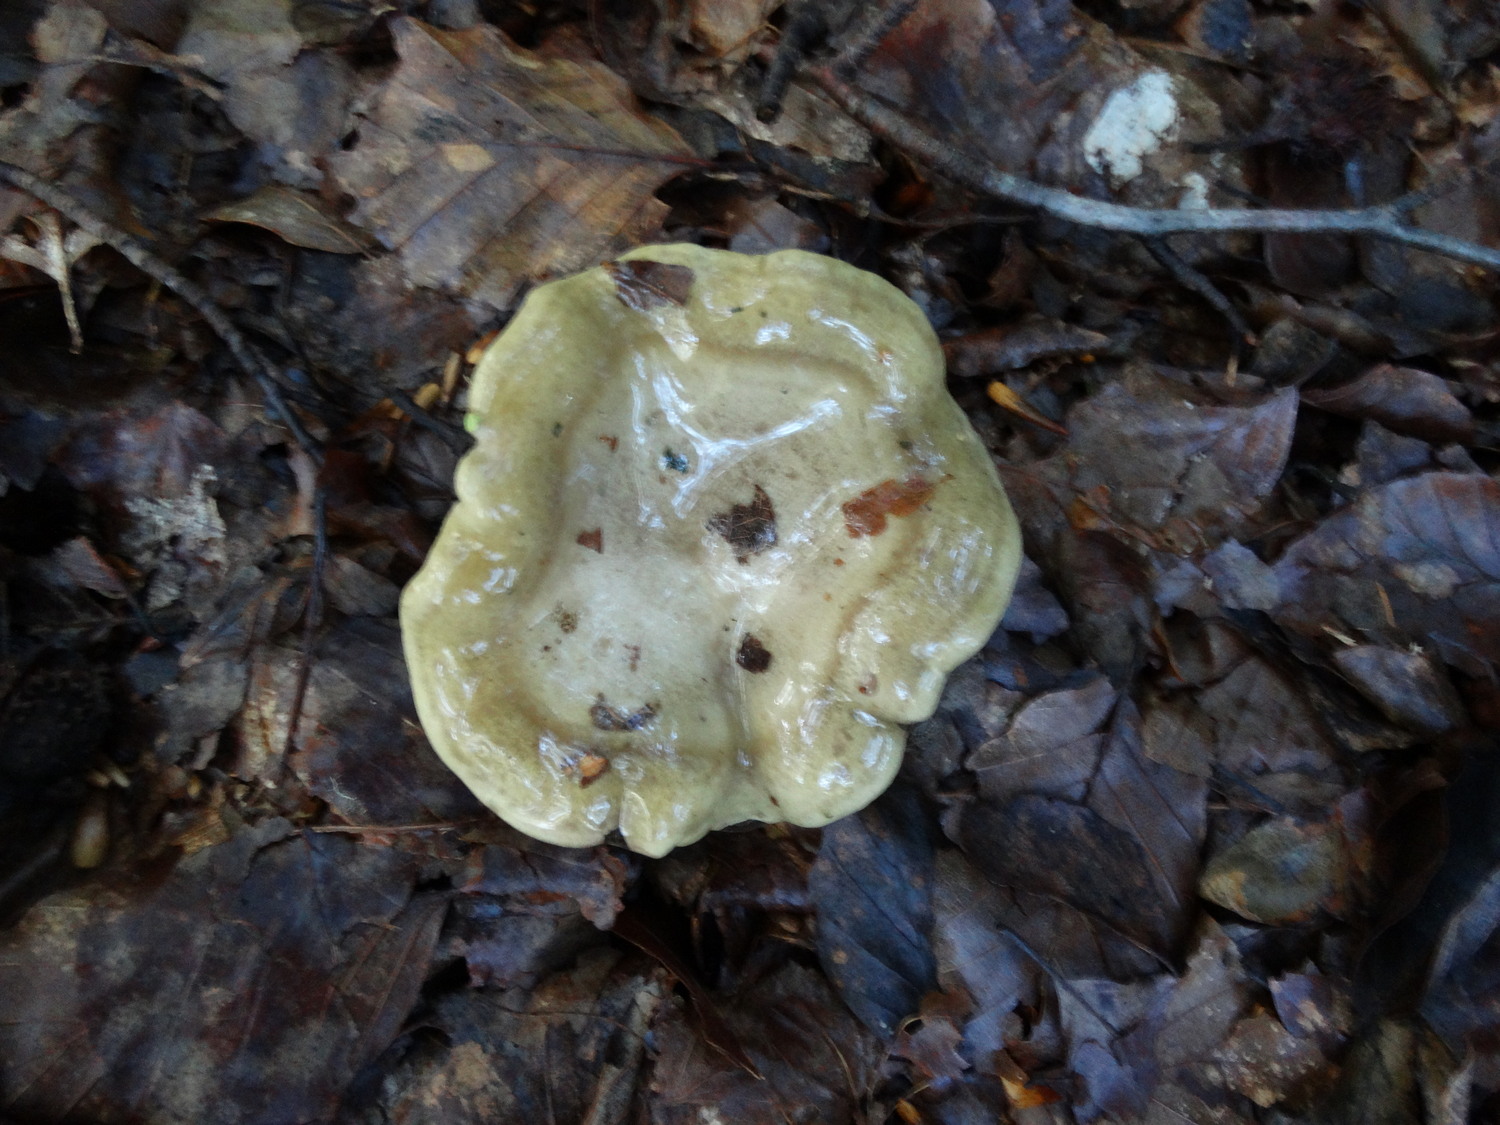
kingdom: Fungi
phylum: Basidiomycota
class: Agaricomycetes
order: Russulales
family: Russulaceae
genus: Lactarius
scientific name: Lactarius blennius
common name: dråbeplettet mælkehat
